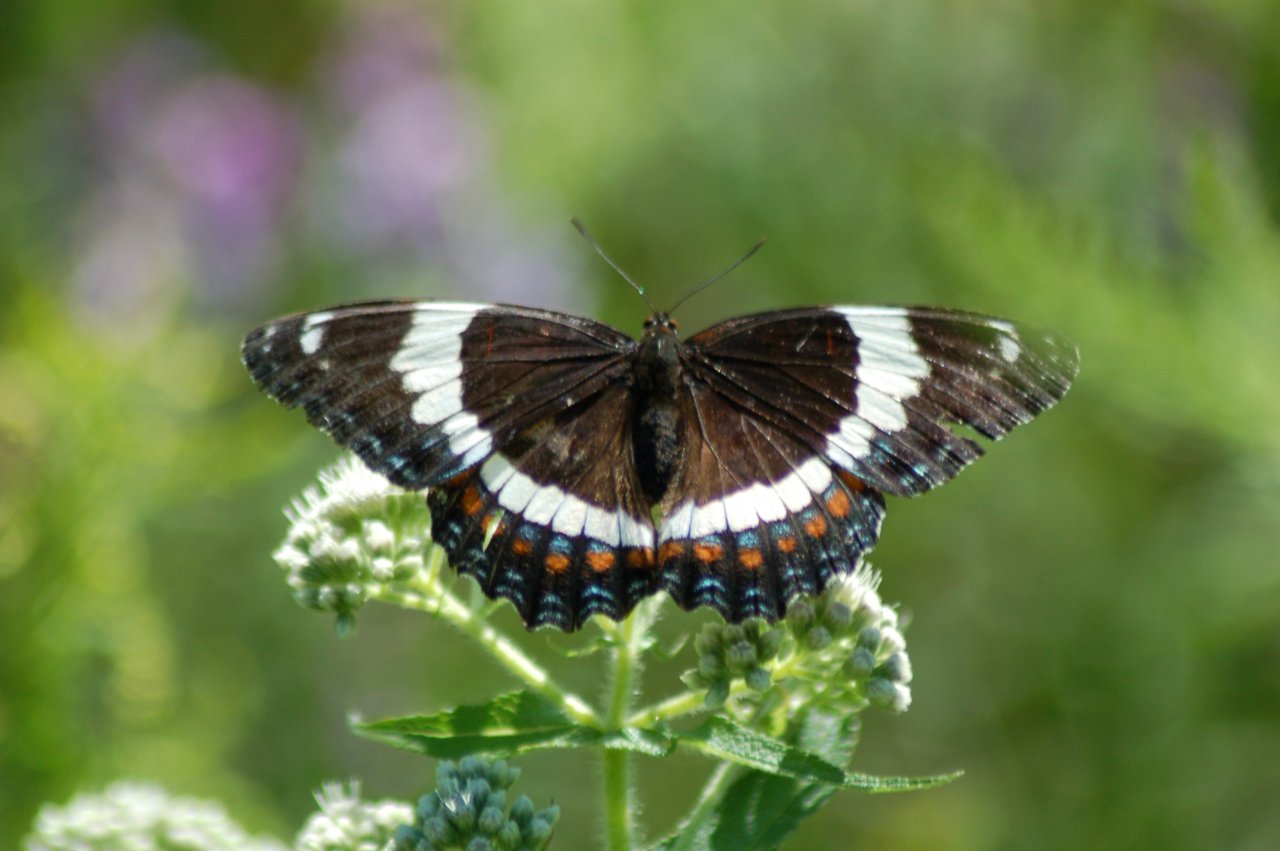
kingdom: Animalia
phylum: Arthropoda
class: Insecta
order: Lepidoptera
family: Nymphalidae
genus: Limenitis
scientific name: Limenitis arthemis
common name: Red-spotted Admiral
